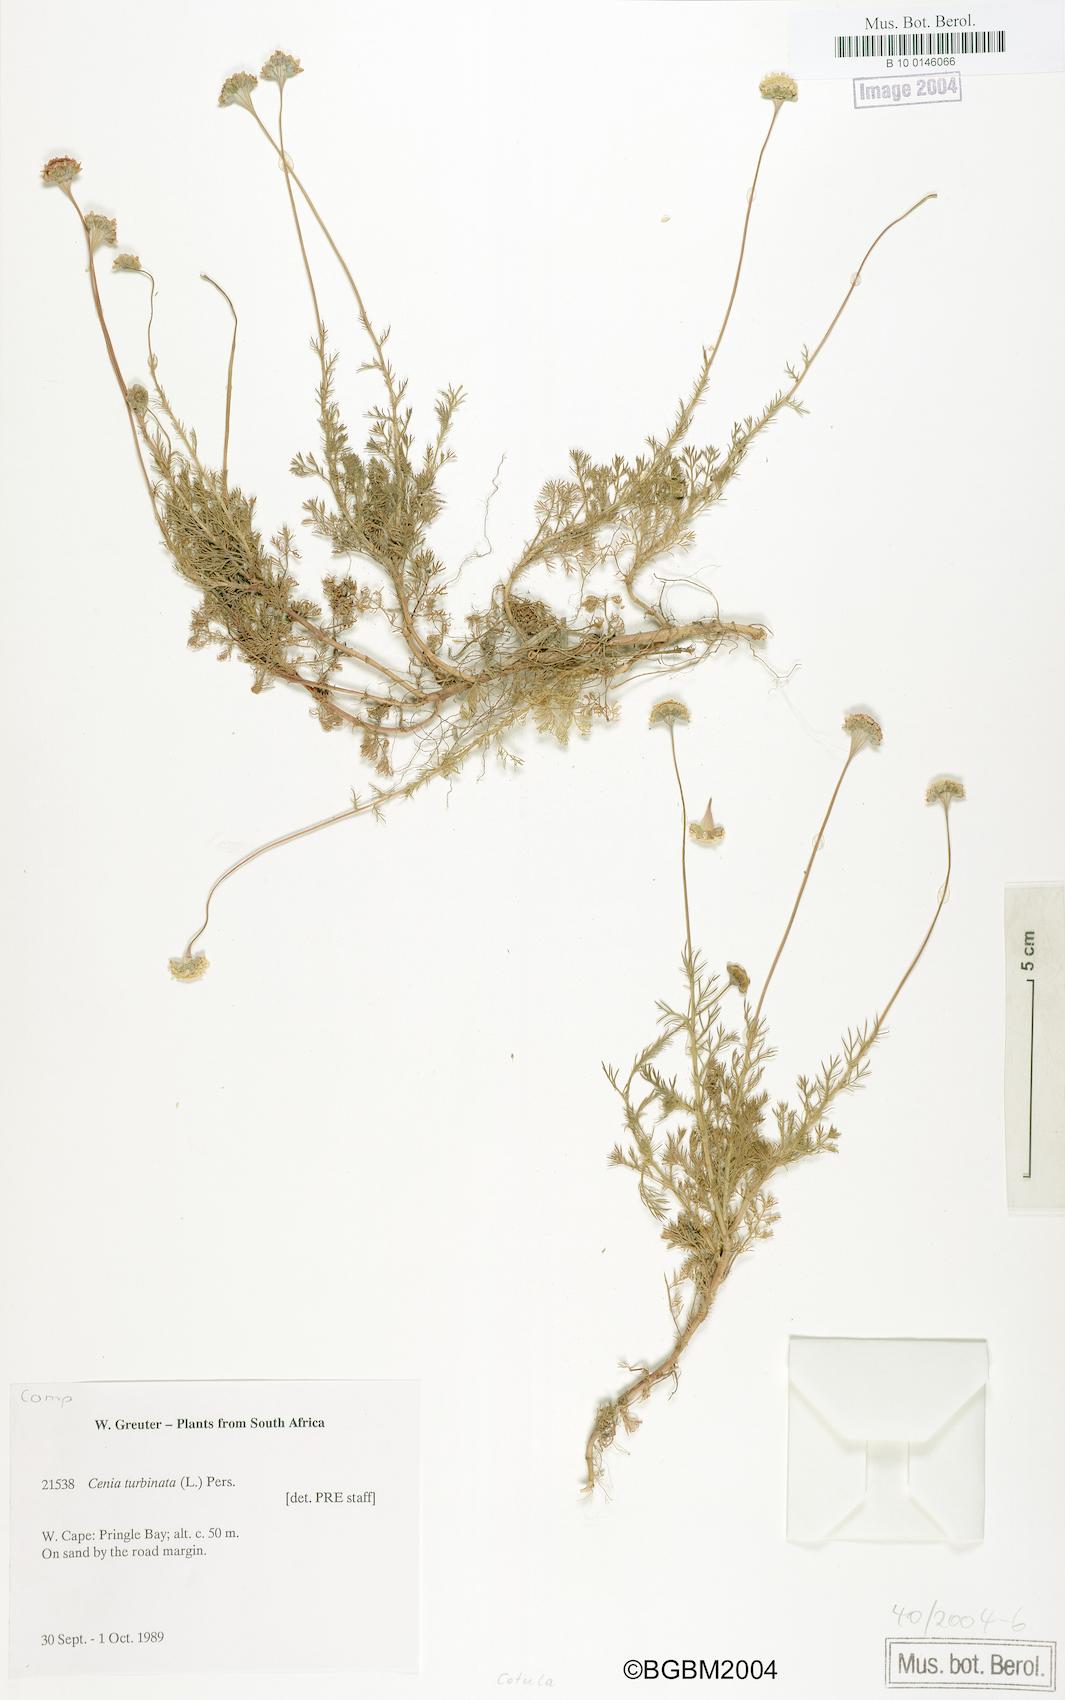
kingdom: Plantae
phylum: Tracheophyta
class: Magnoliopsida
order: Asterales
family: Asteraceae
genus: Cotula
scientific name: Cotula
